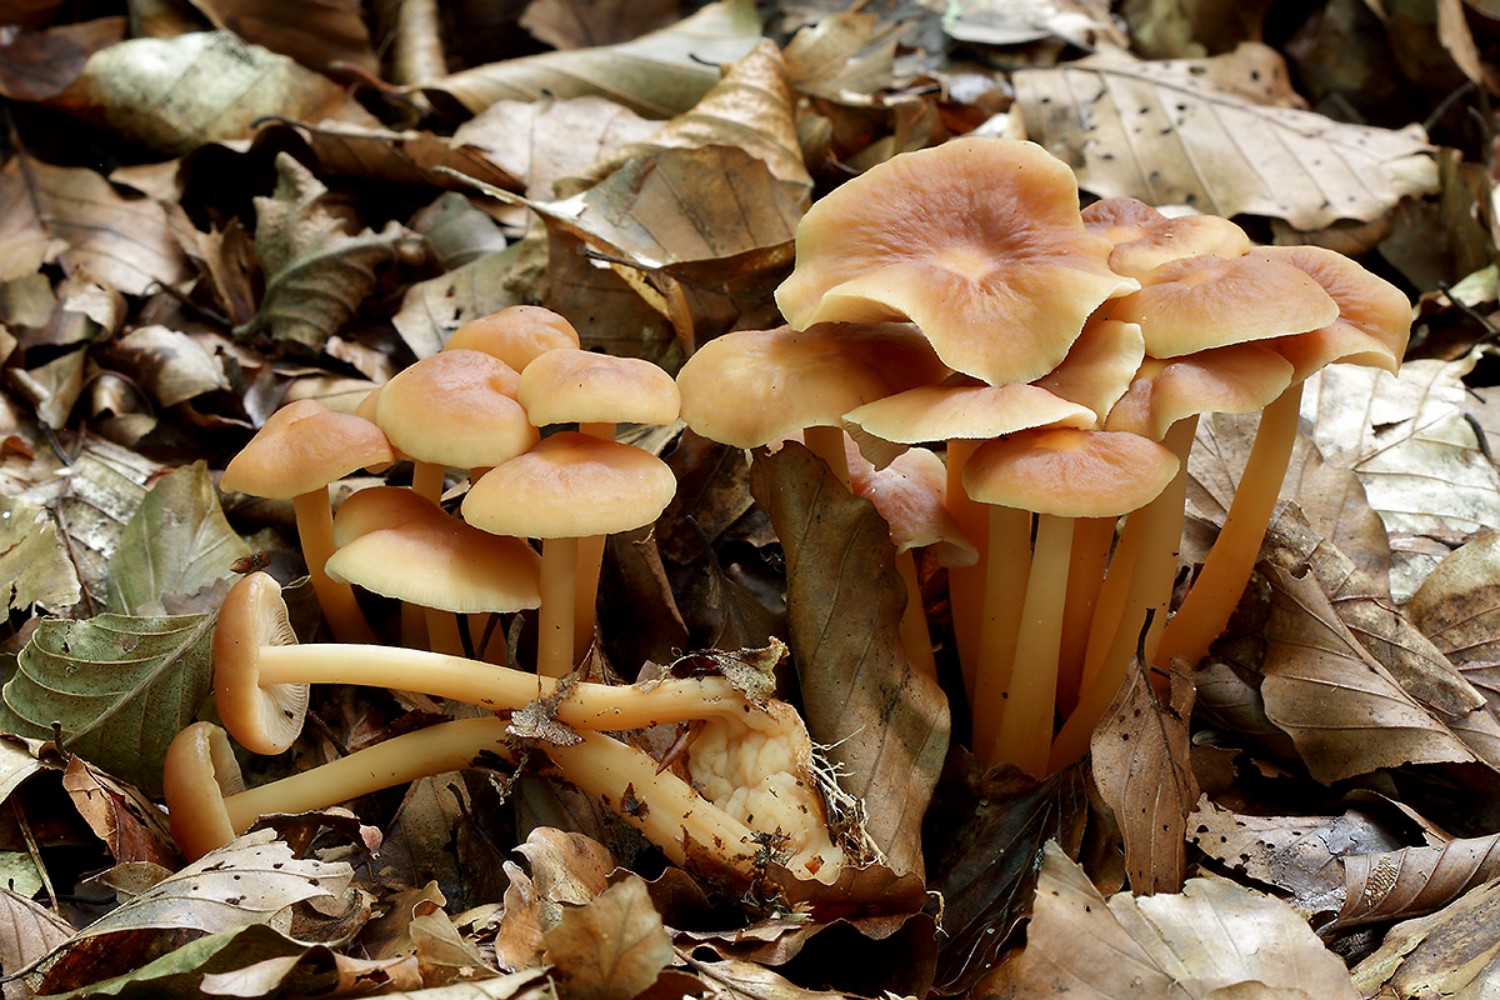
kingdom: Fungi
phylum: Basidiomycota
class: Agaricomycetes
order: Agaricales
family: Omphalotaceae
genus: Gymnopus
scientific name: Gymnopus dryophilus
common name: løv-fladhat
